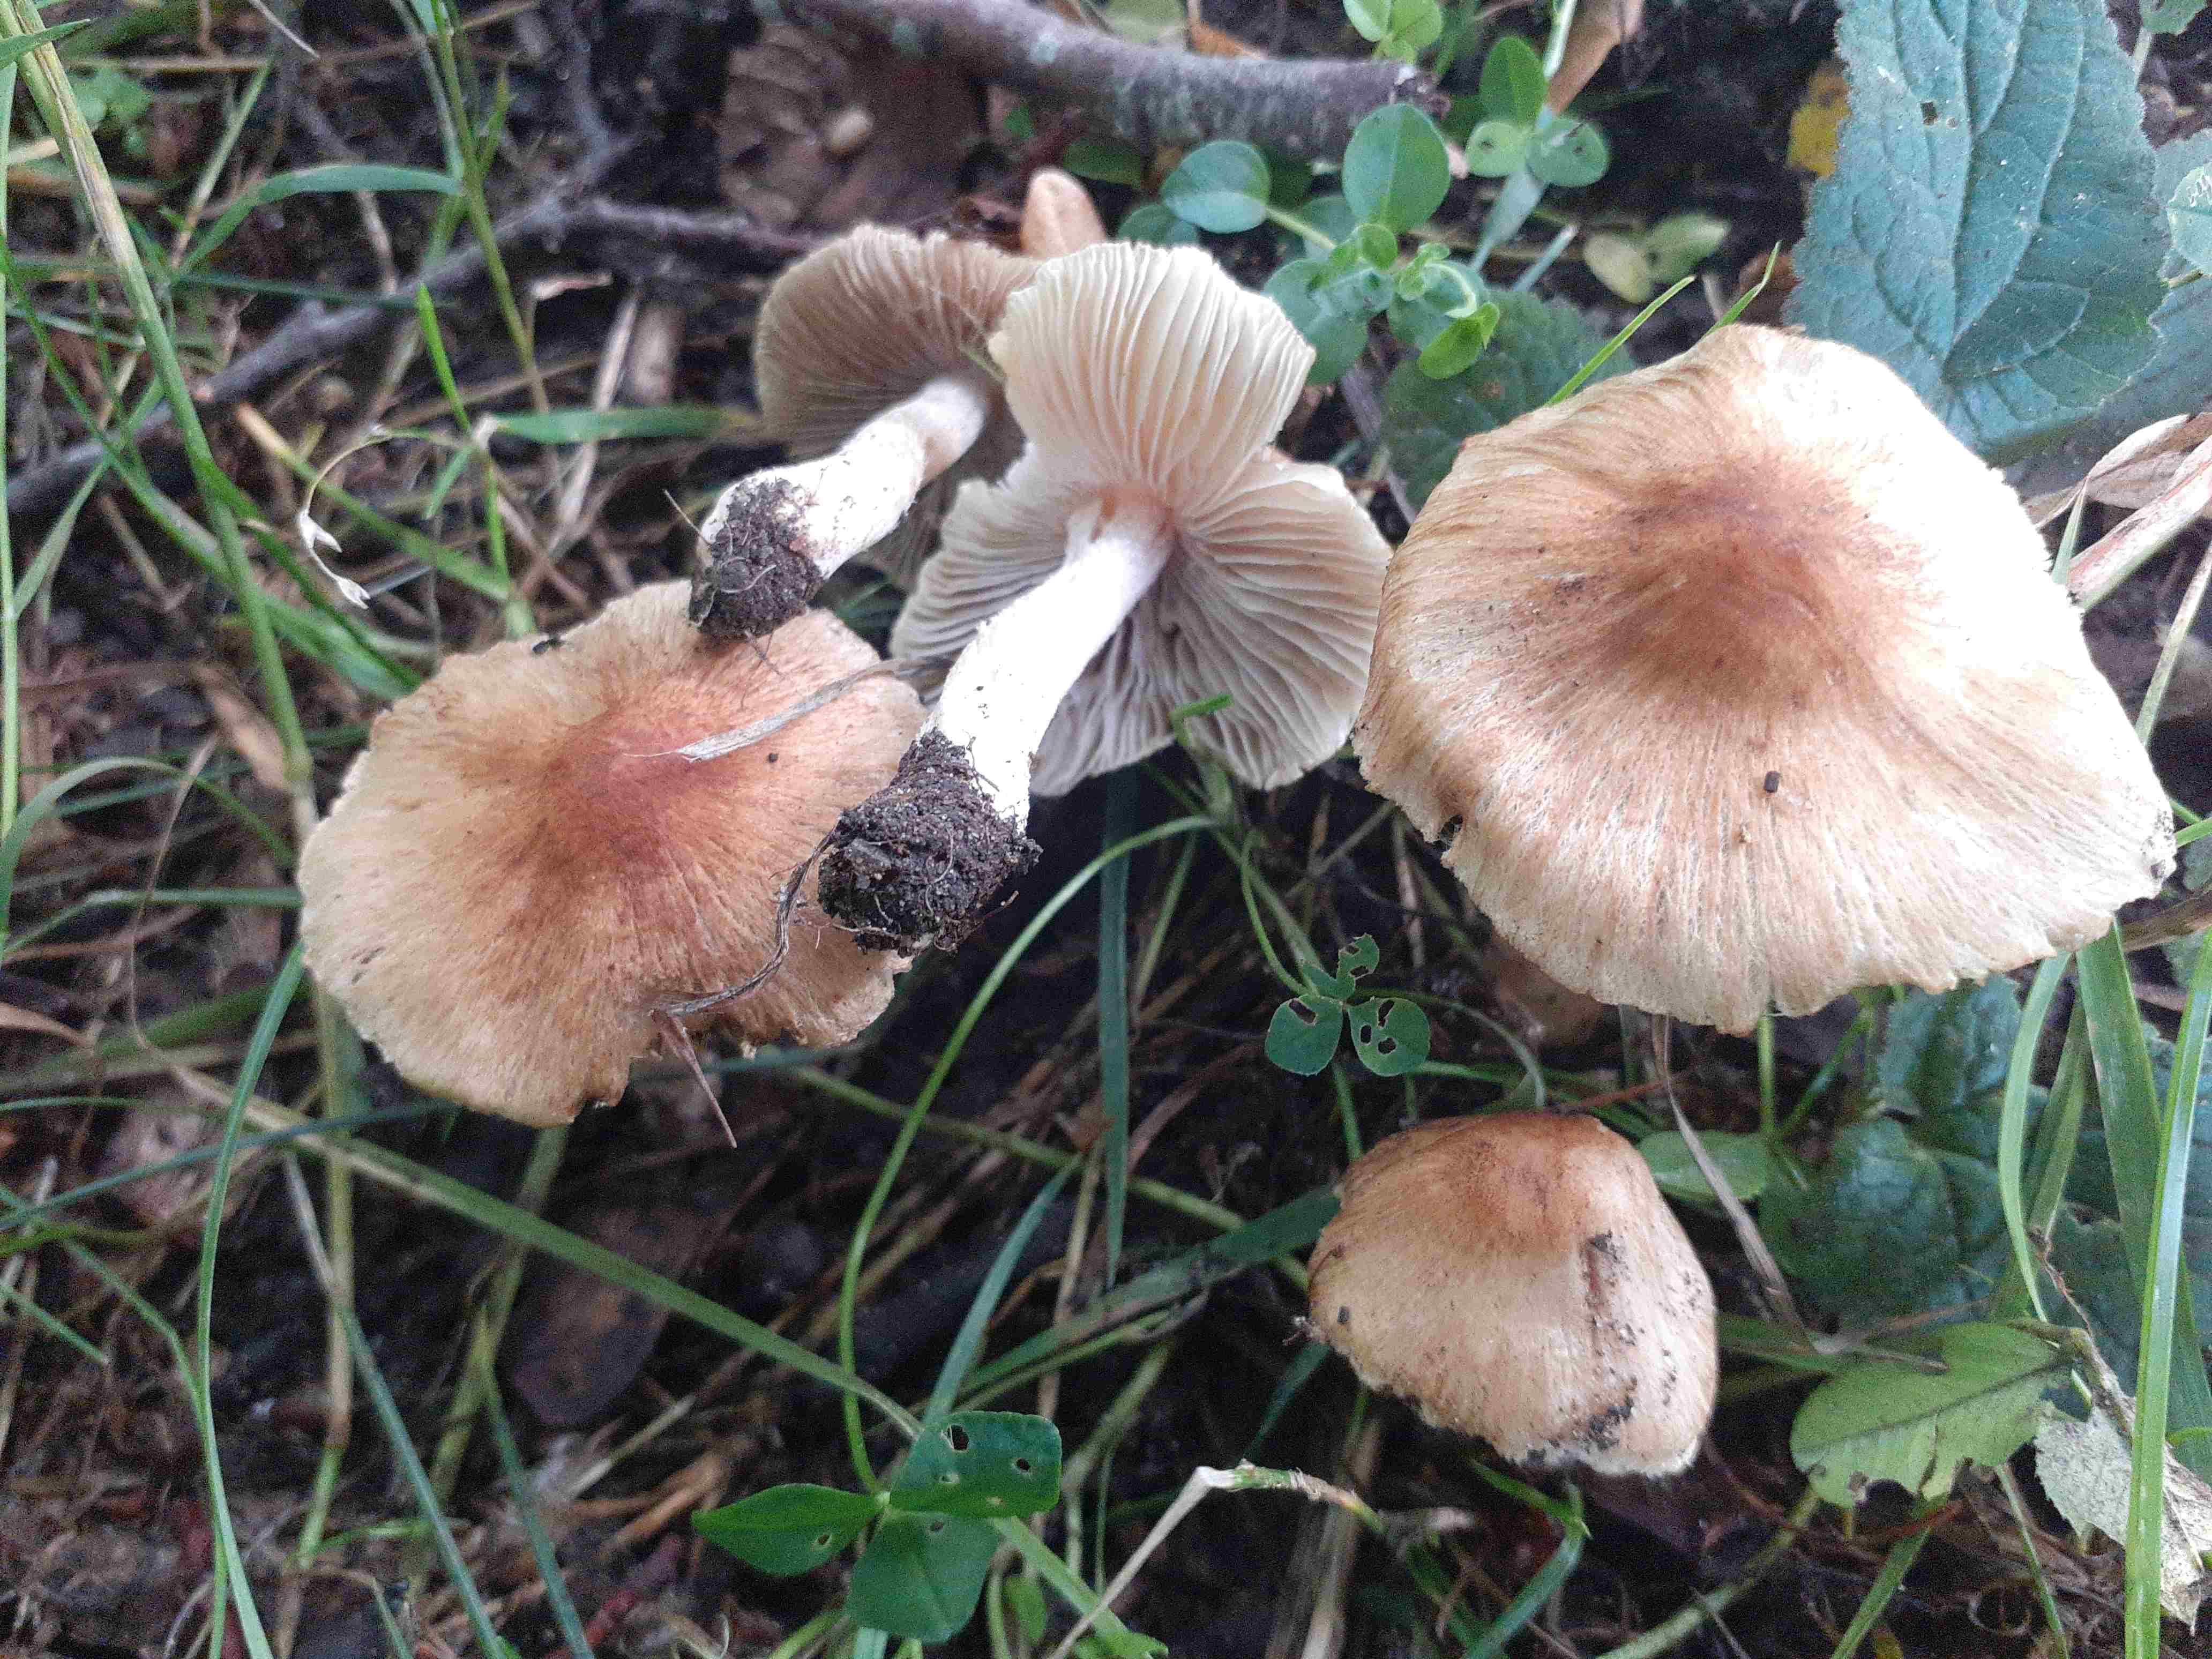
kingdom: Fungi
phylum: Basidiomycota
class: Agaricomycetes
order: Agaricales
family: Inocybaceae
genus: Pseudosperma
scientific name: Pseudosperma
